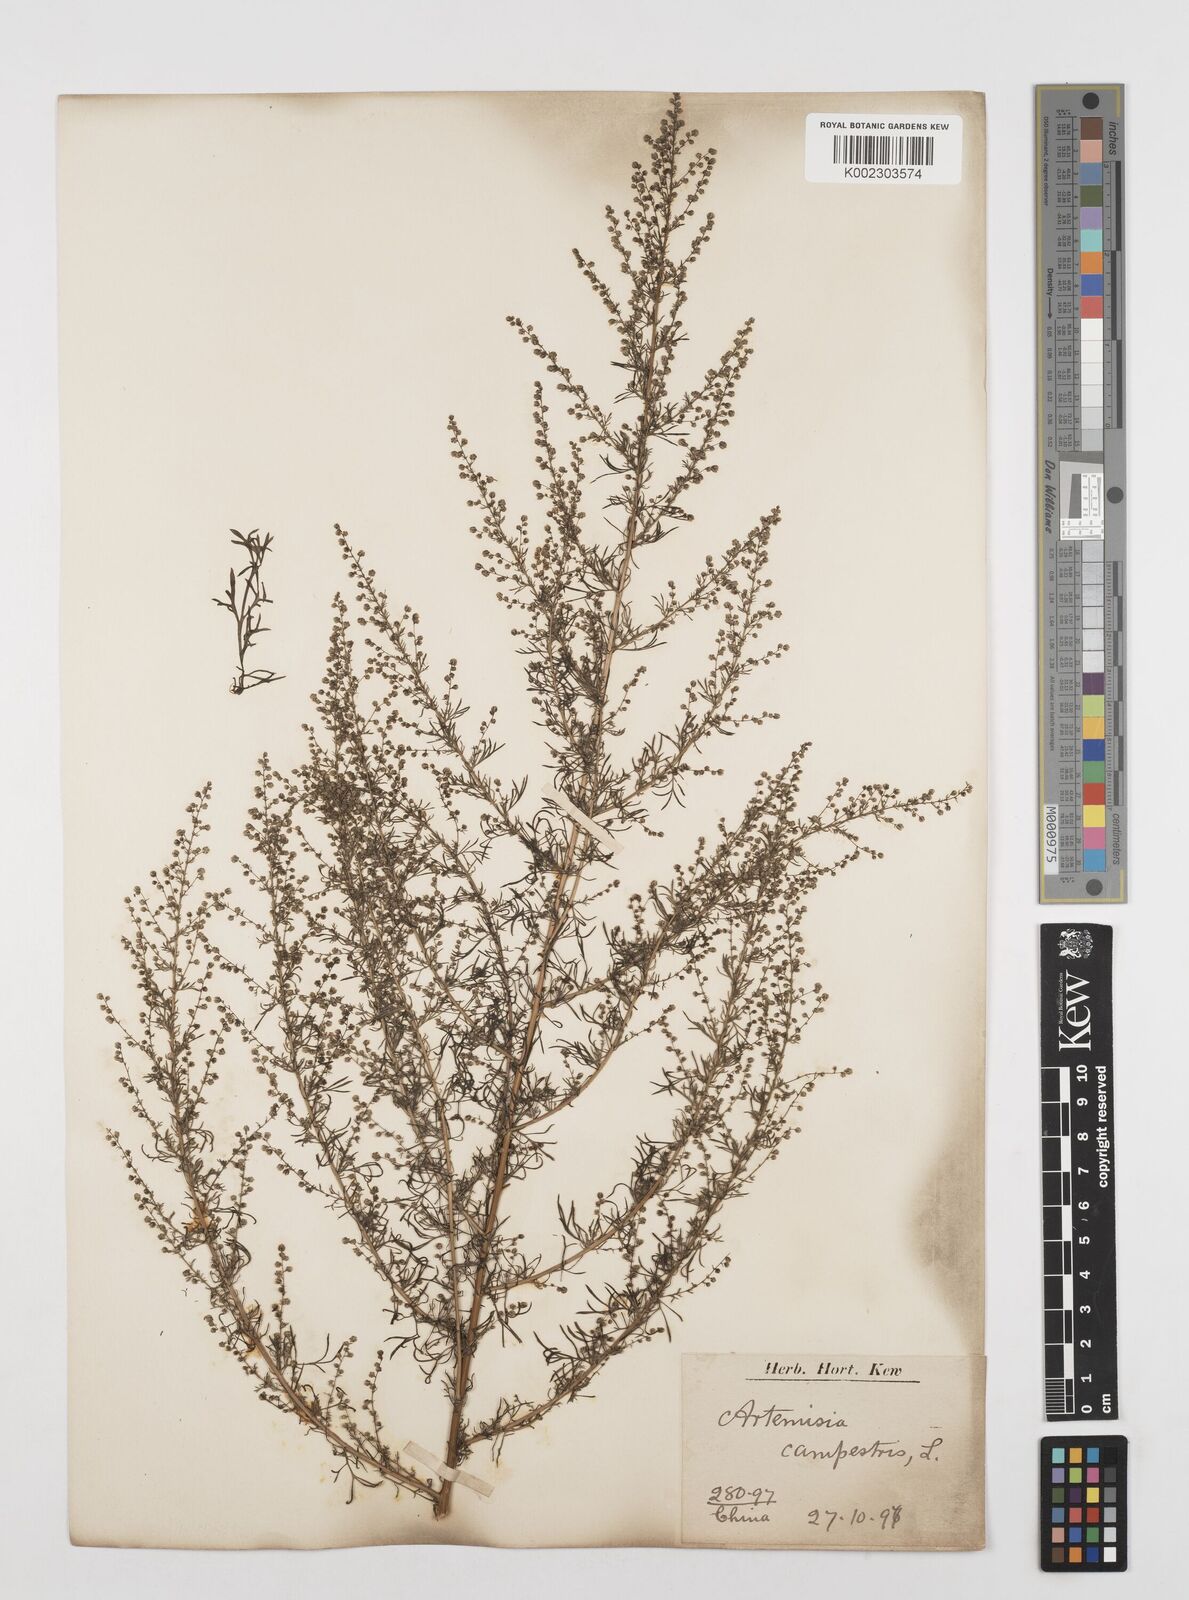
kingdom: Plantae
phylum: Tracheophyta
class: Magnoliopsida
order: Asterales
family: Asteraceae
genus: Artemisia
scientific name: Artemisia alba
